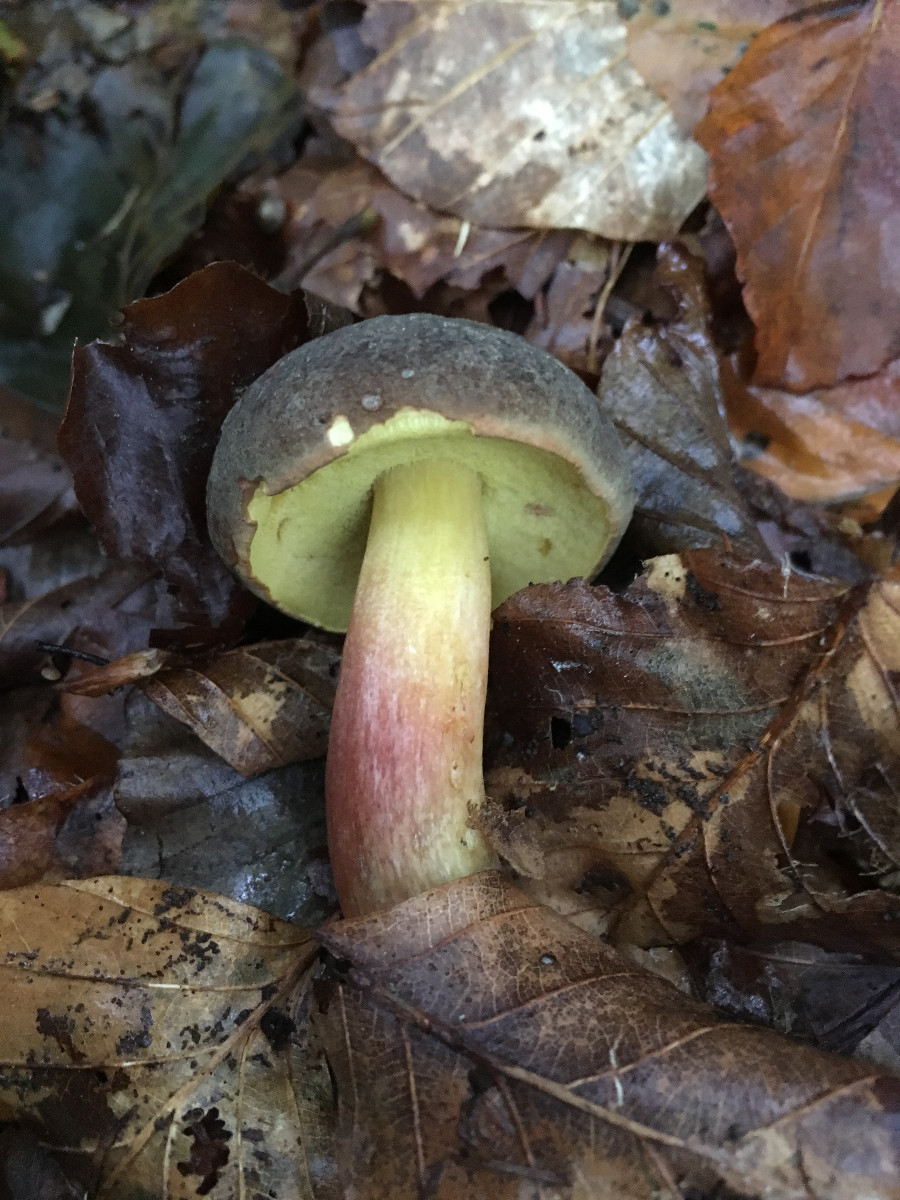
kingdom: Fungi
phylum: Basidiomycota
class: Agaricomycetes
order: Boletales
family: Boletaceae
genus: Xerocomellus
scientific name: Xerocomellus pruinatus
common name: dugget rørhat
